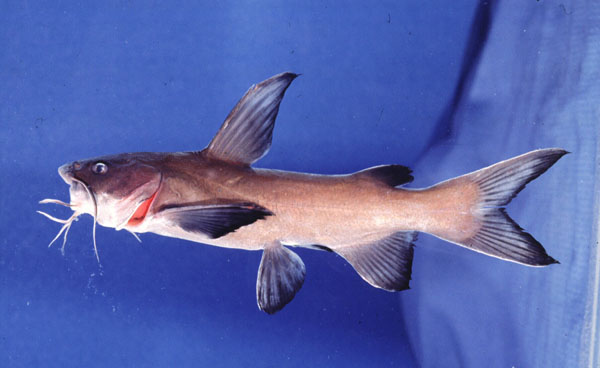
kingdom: Animalia
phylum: Chordata
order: Siluriformes
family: Ariidae
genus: Galeichthys
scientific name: Galeichthys troworum
